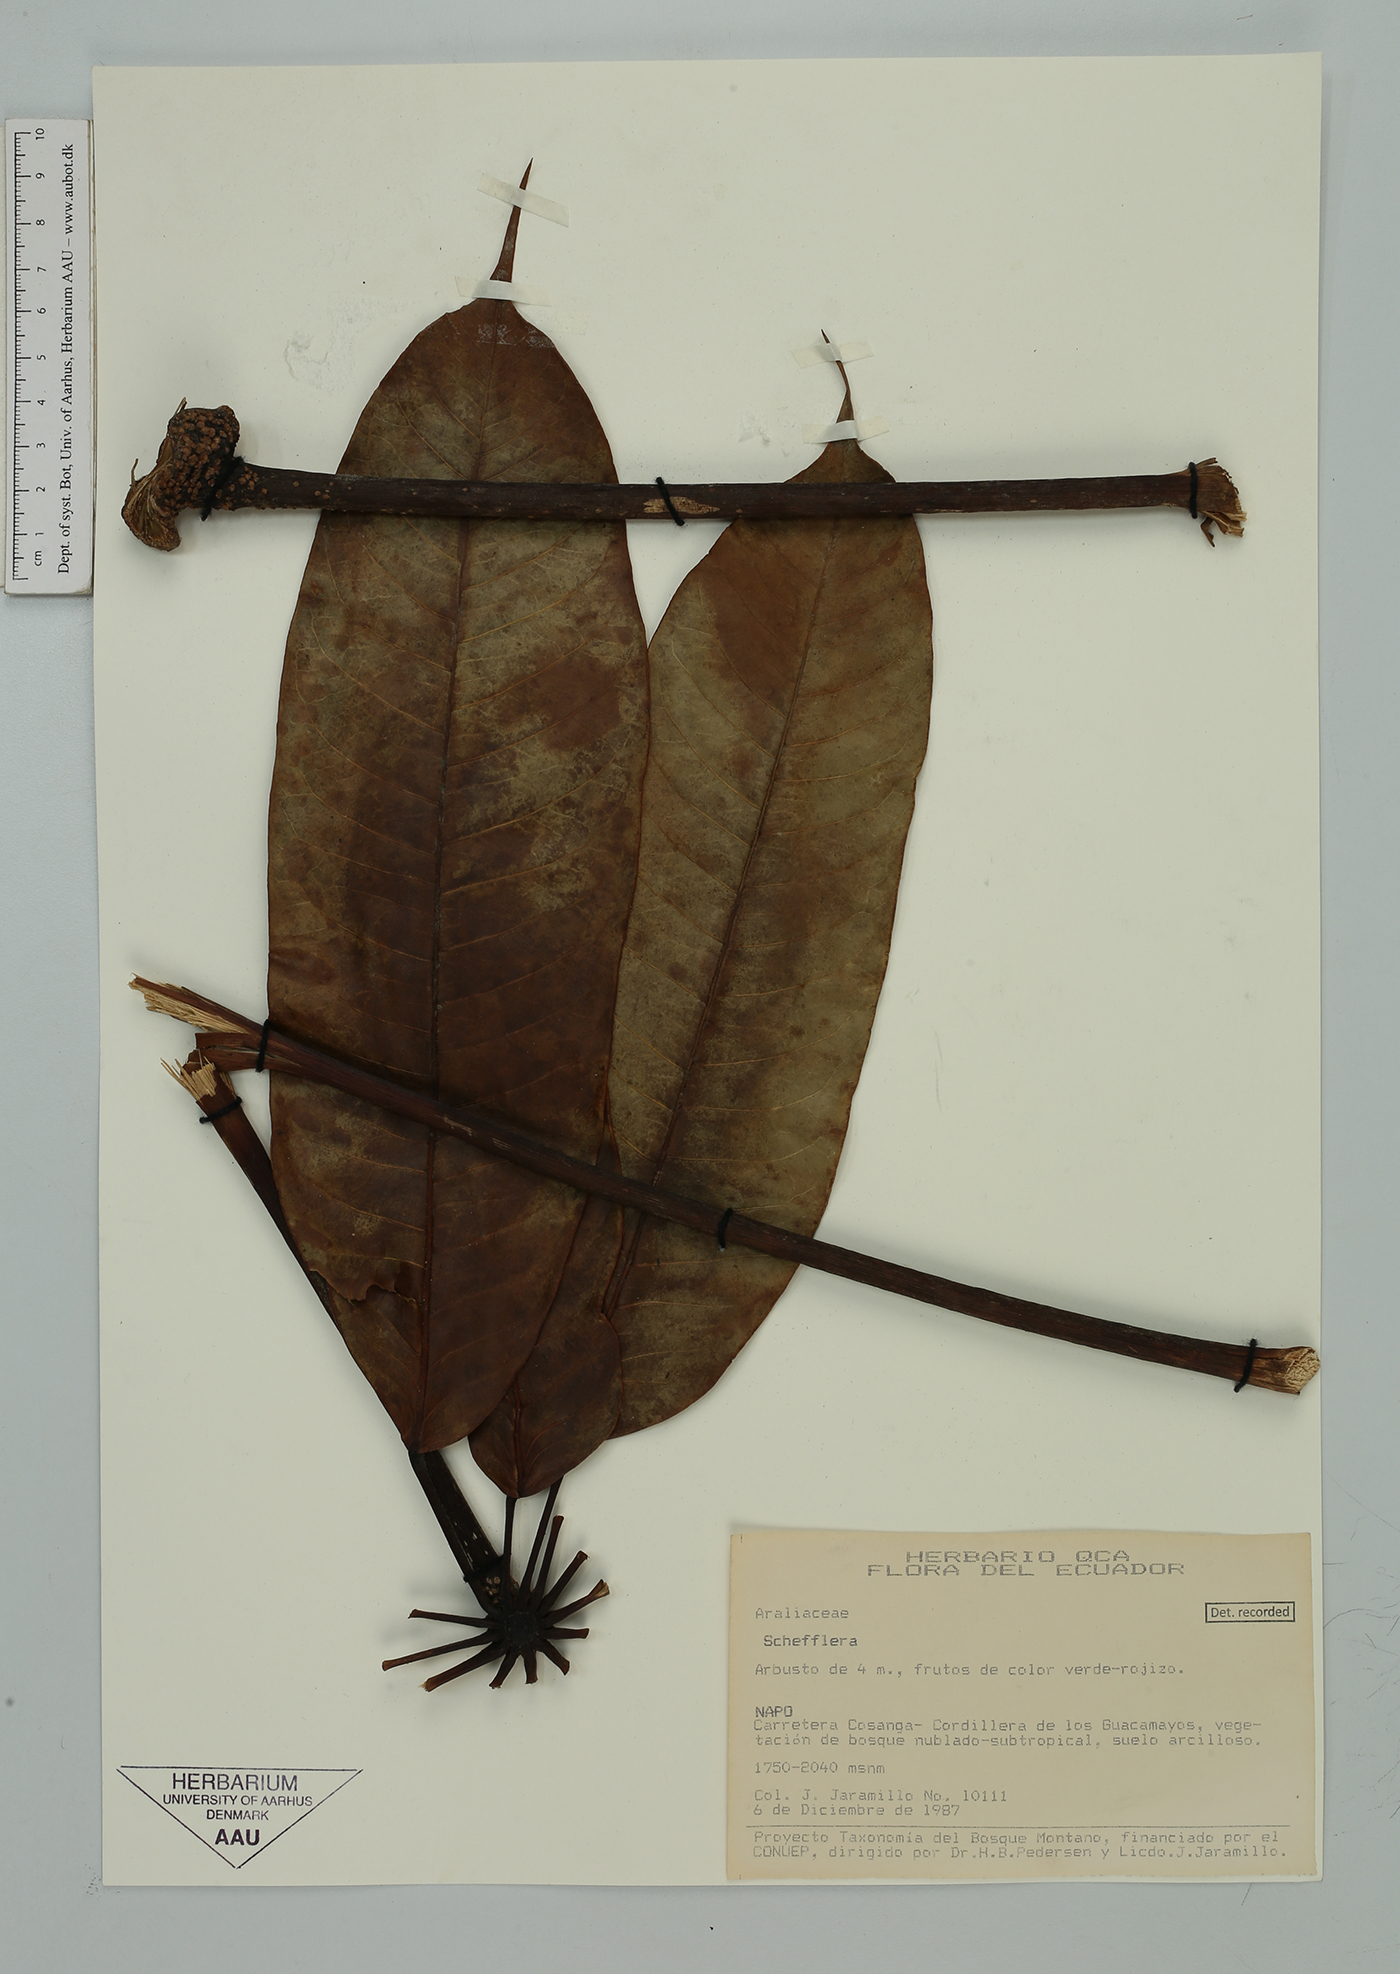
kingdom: Plantae
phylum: Tracheophyta
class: Magnoliopsida
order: Apiales
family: Araliaceae
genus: Sciodaphyllum
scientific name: Sciodaphyllum
